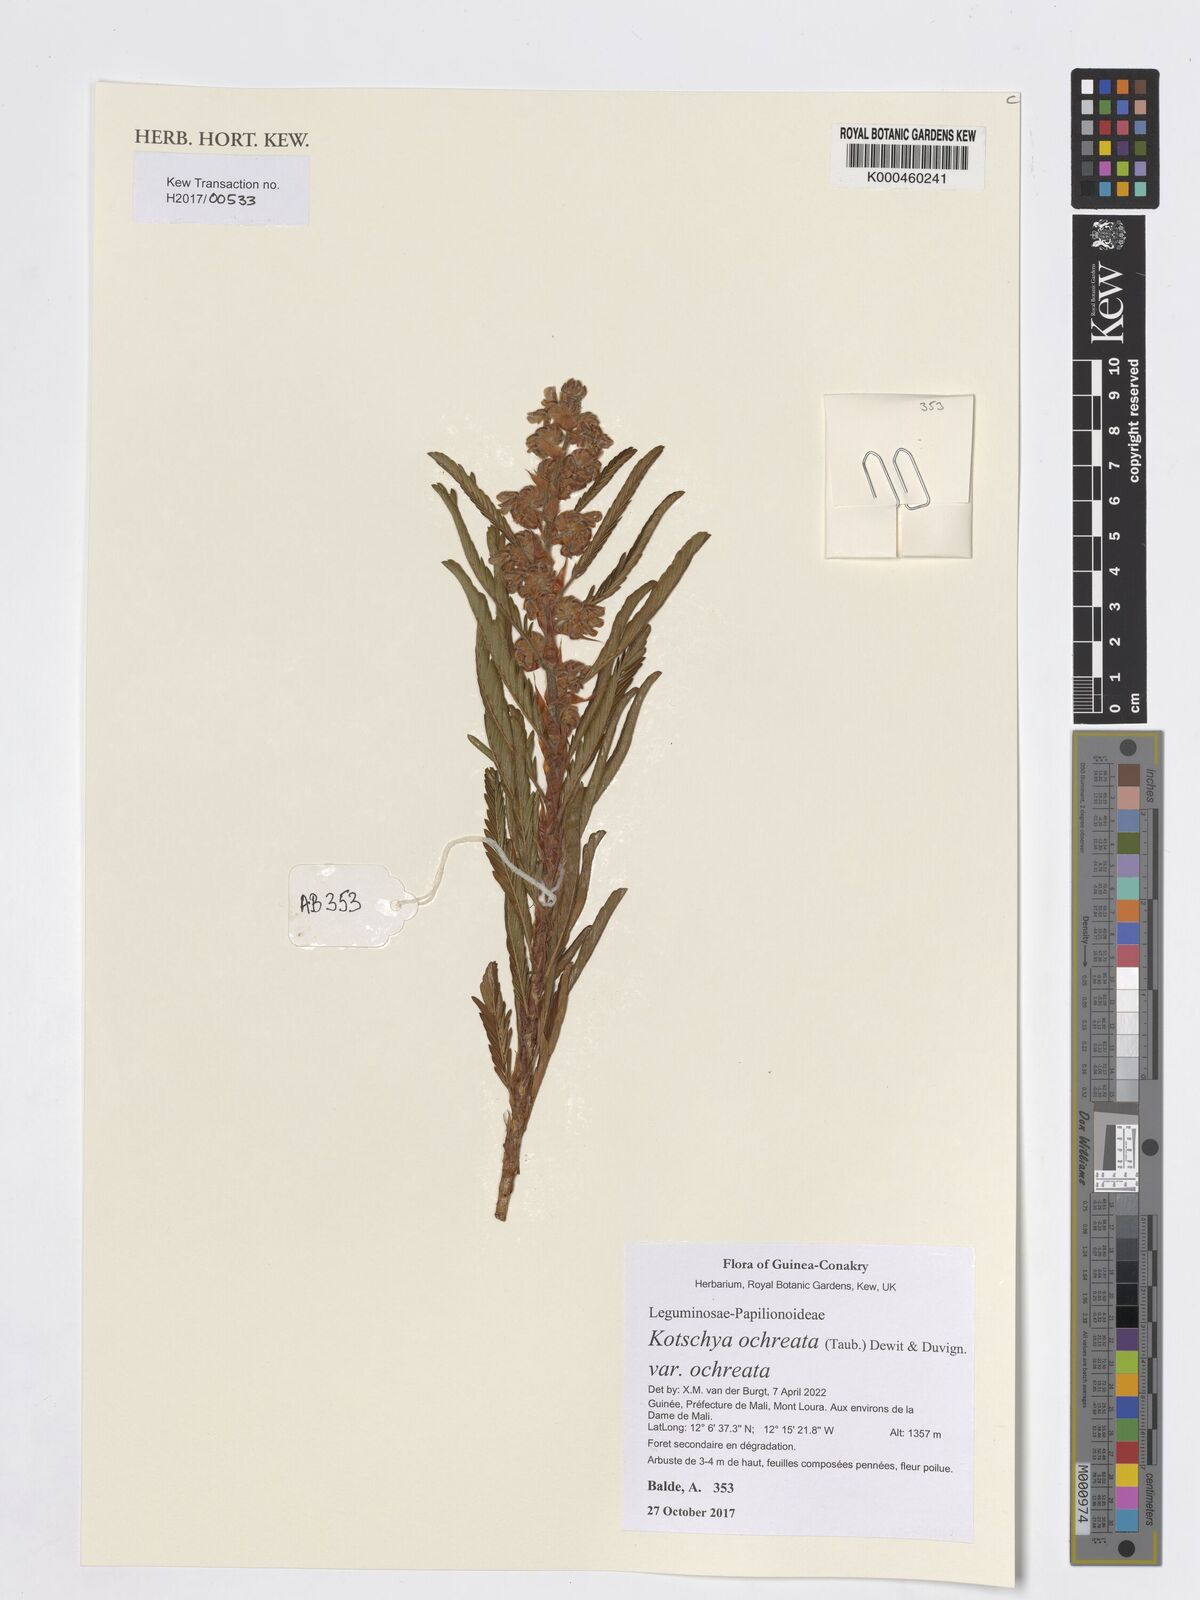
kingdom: Plantae
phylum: Tracheophyta
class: Magnoliopsida
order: Fabales
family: Fabaceae
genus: Kotschya
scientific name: Kotschya ochreata
